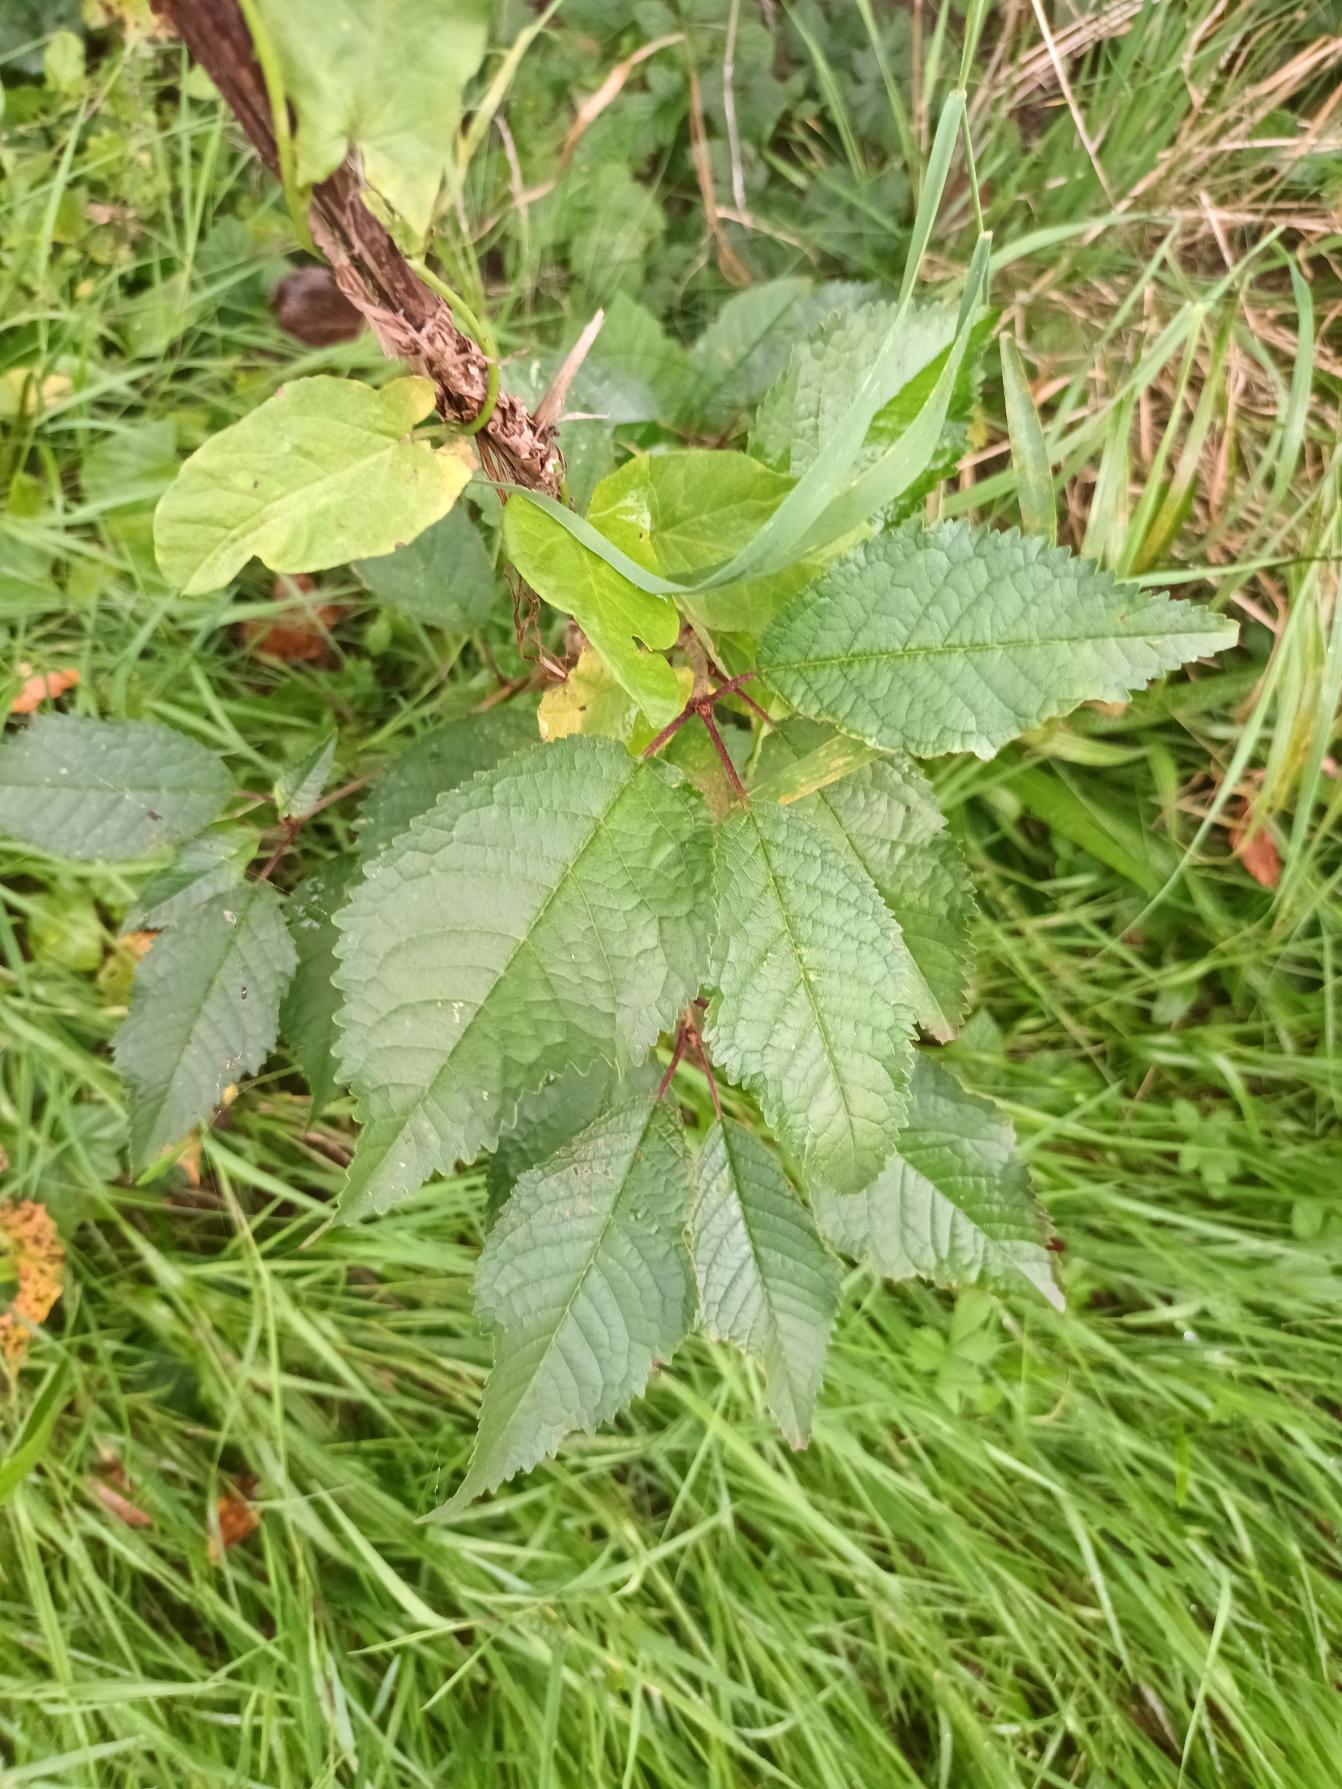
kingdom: Plantae
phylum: Tracheophyta
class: Magnoliopsida
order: Rosales
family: Rosaceae
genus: Prunus
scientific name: Prunus avium
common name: Fugle-kirsebær
